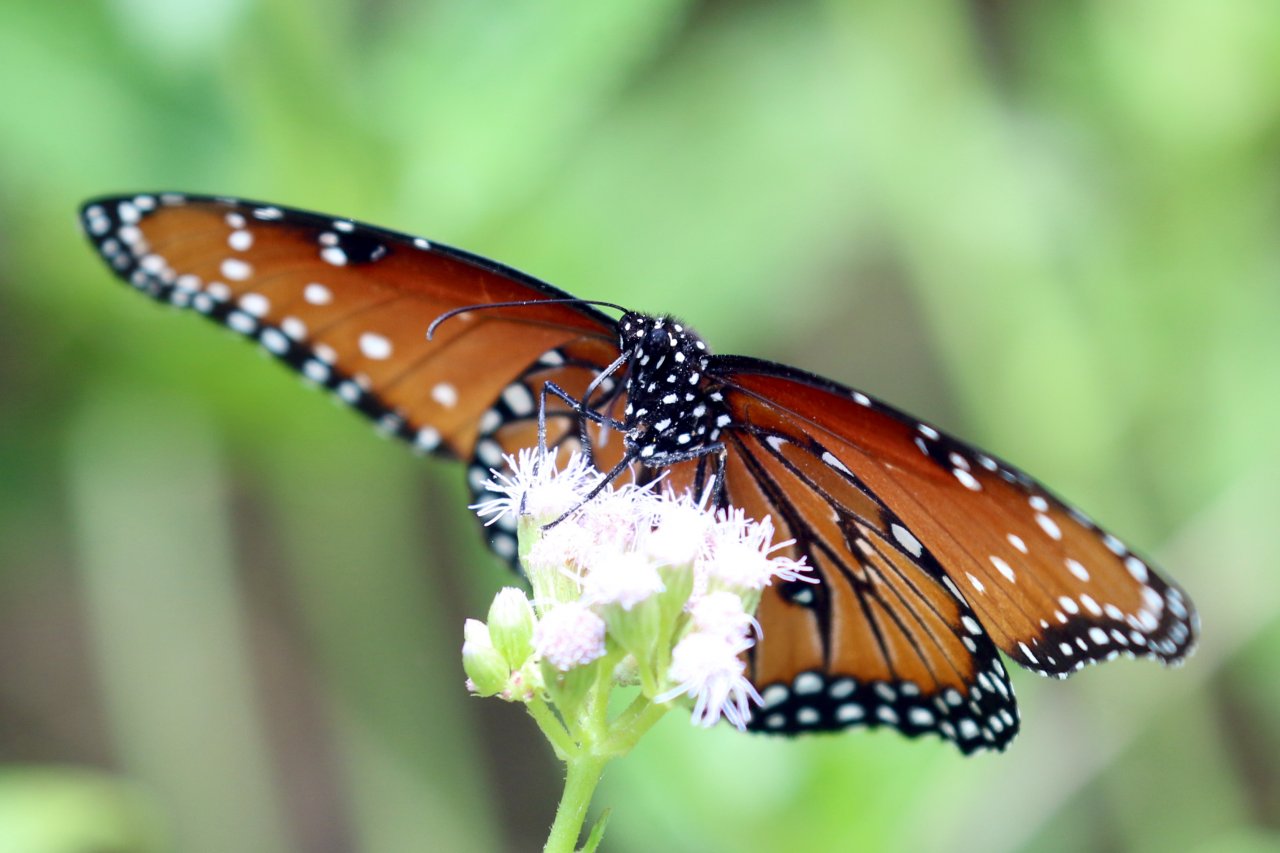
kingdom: Animalia
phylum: Arthropoda
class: Insecta
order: Lepidoptera
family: Nymphalidae
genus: Danaus
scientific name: Danaus gilippus
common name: Queen
